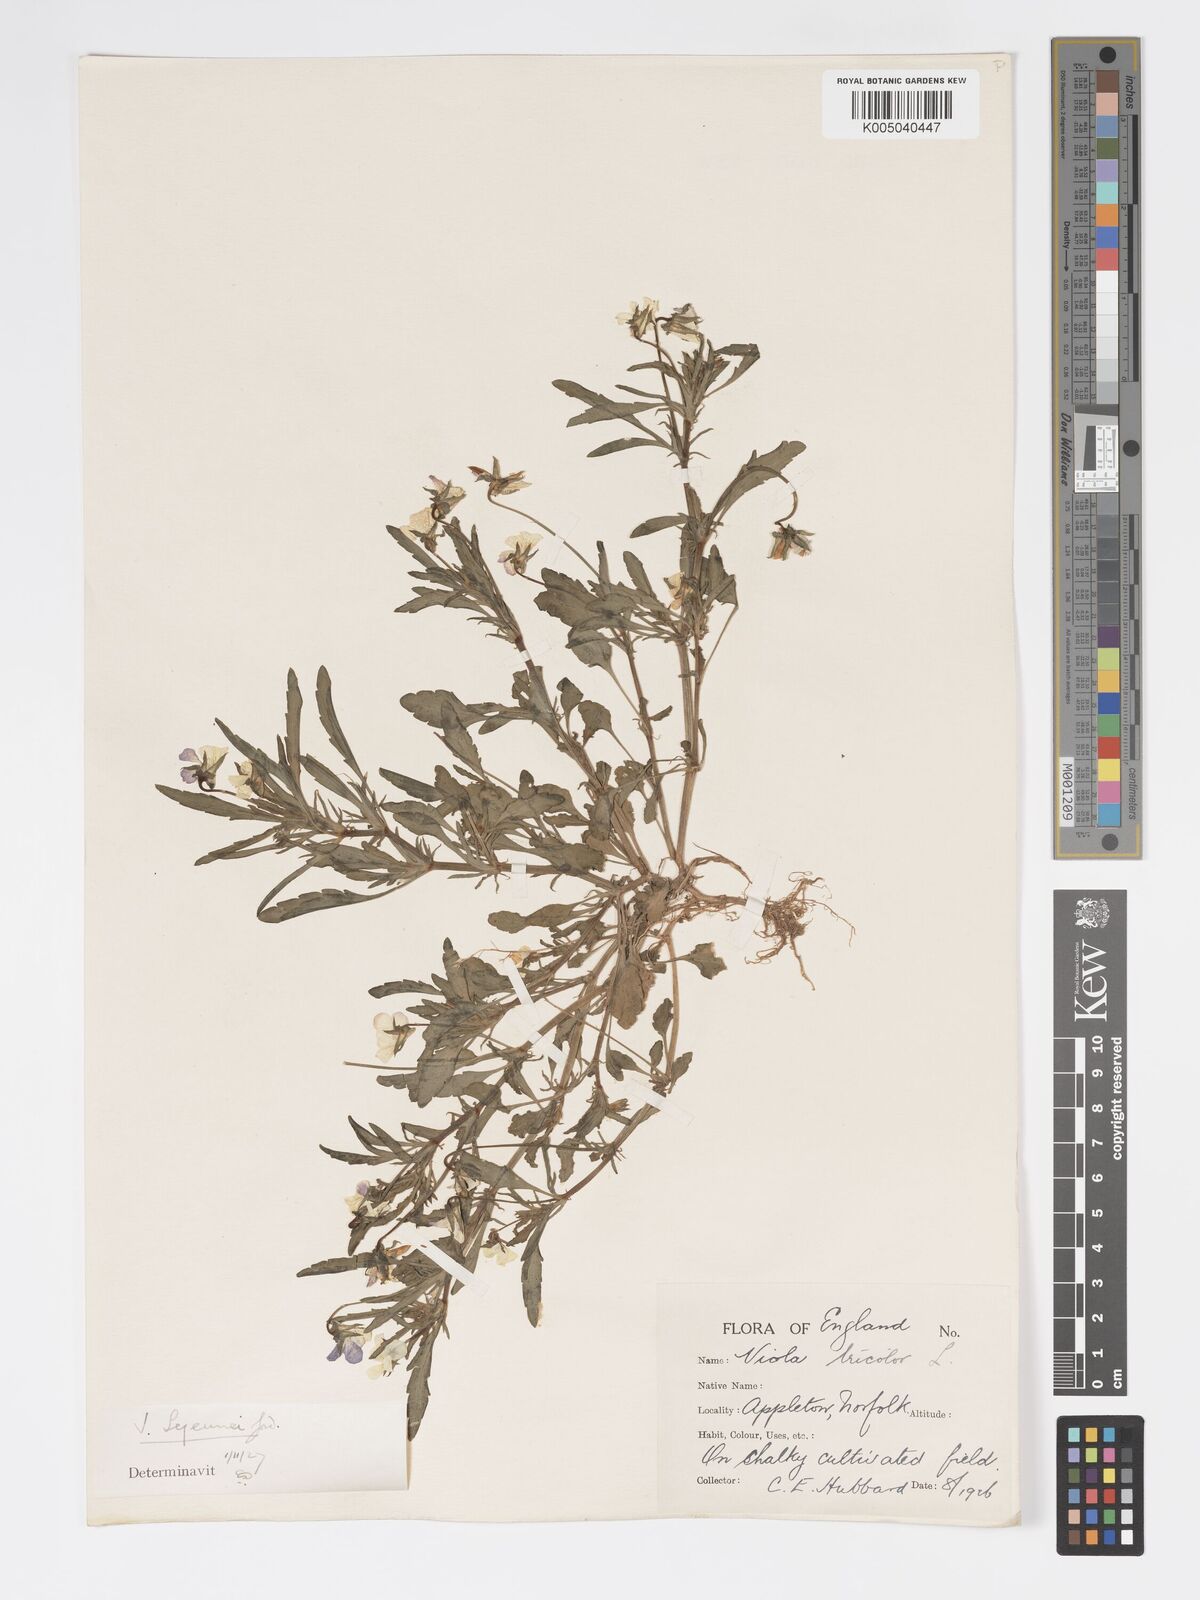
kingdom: Plantae
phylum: Tracheophyta
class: Magnoliopsida
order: Malpighiales
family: Violaceae
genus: Viola
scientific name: Viola arvensis
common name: Field pansy
